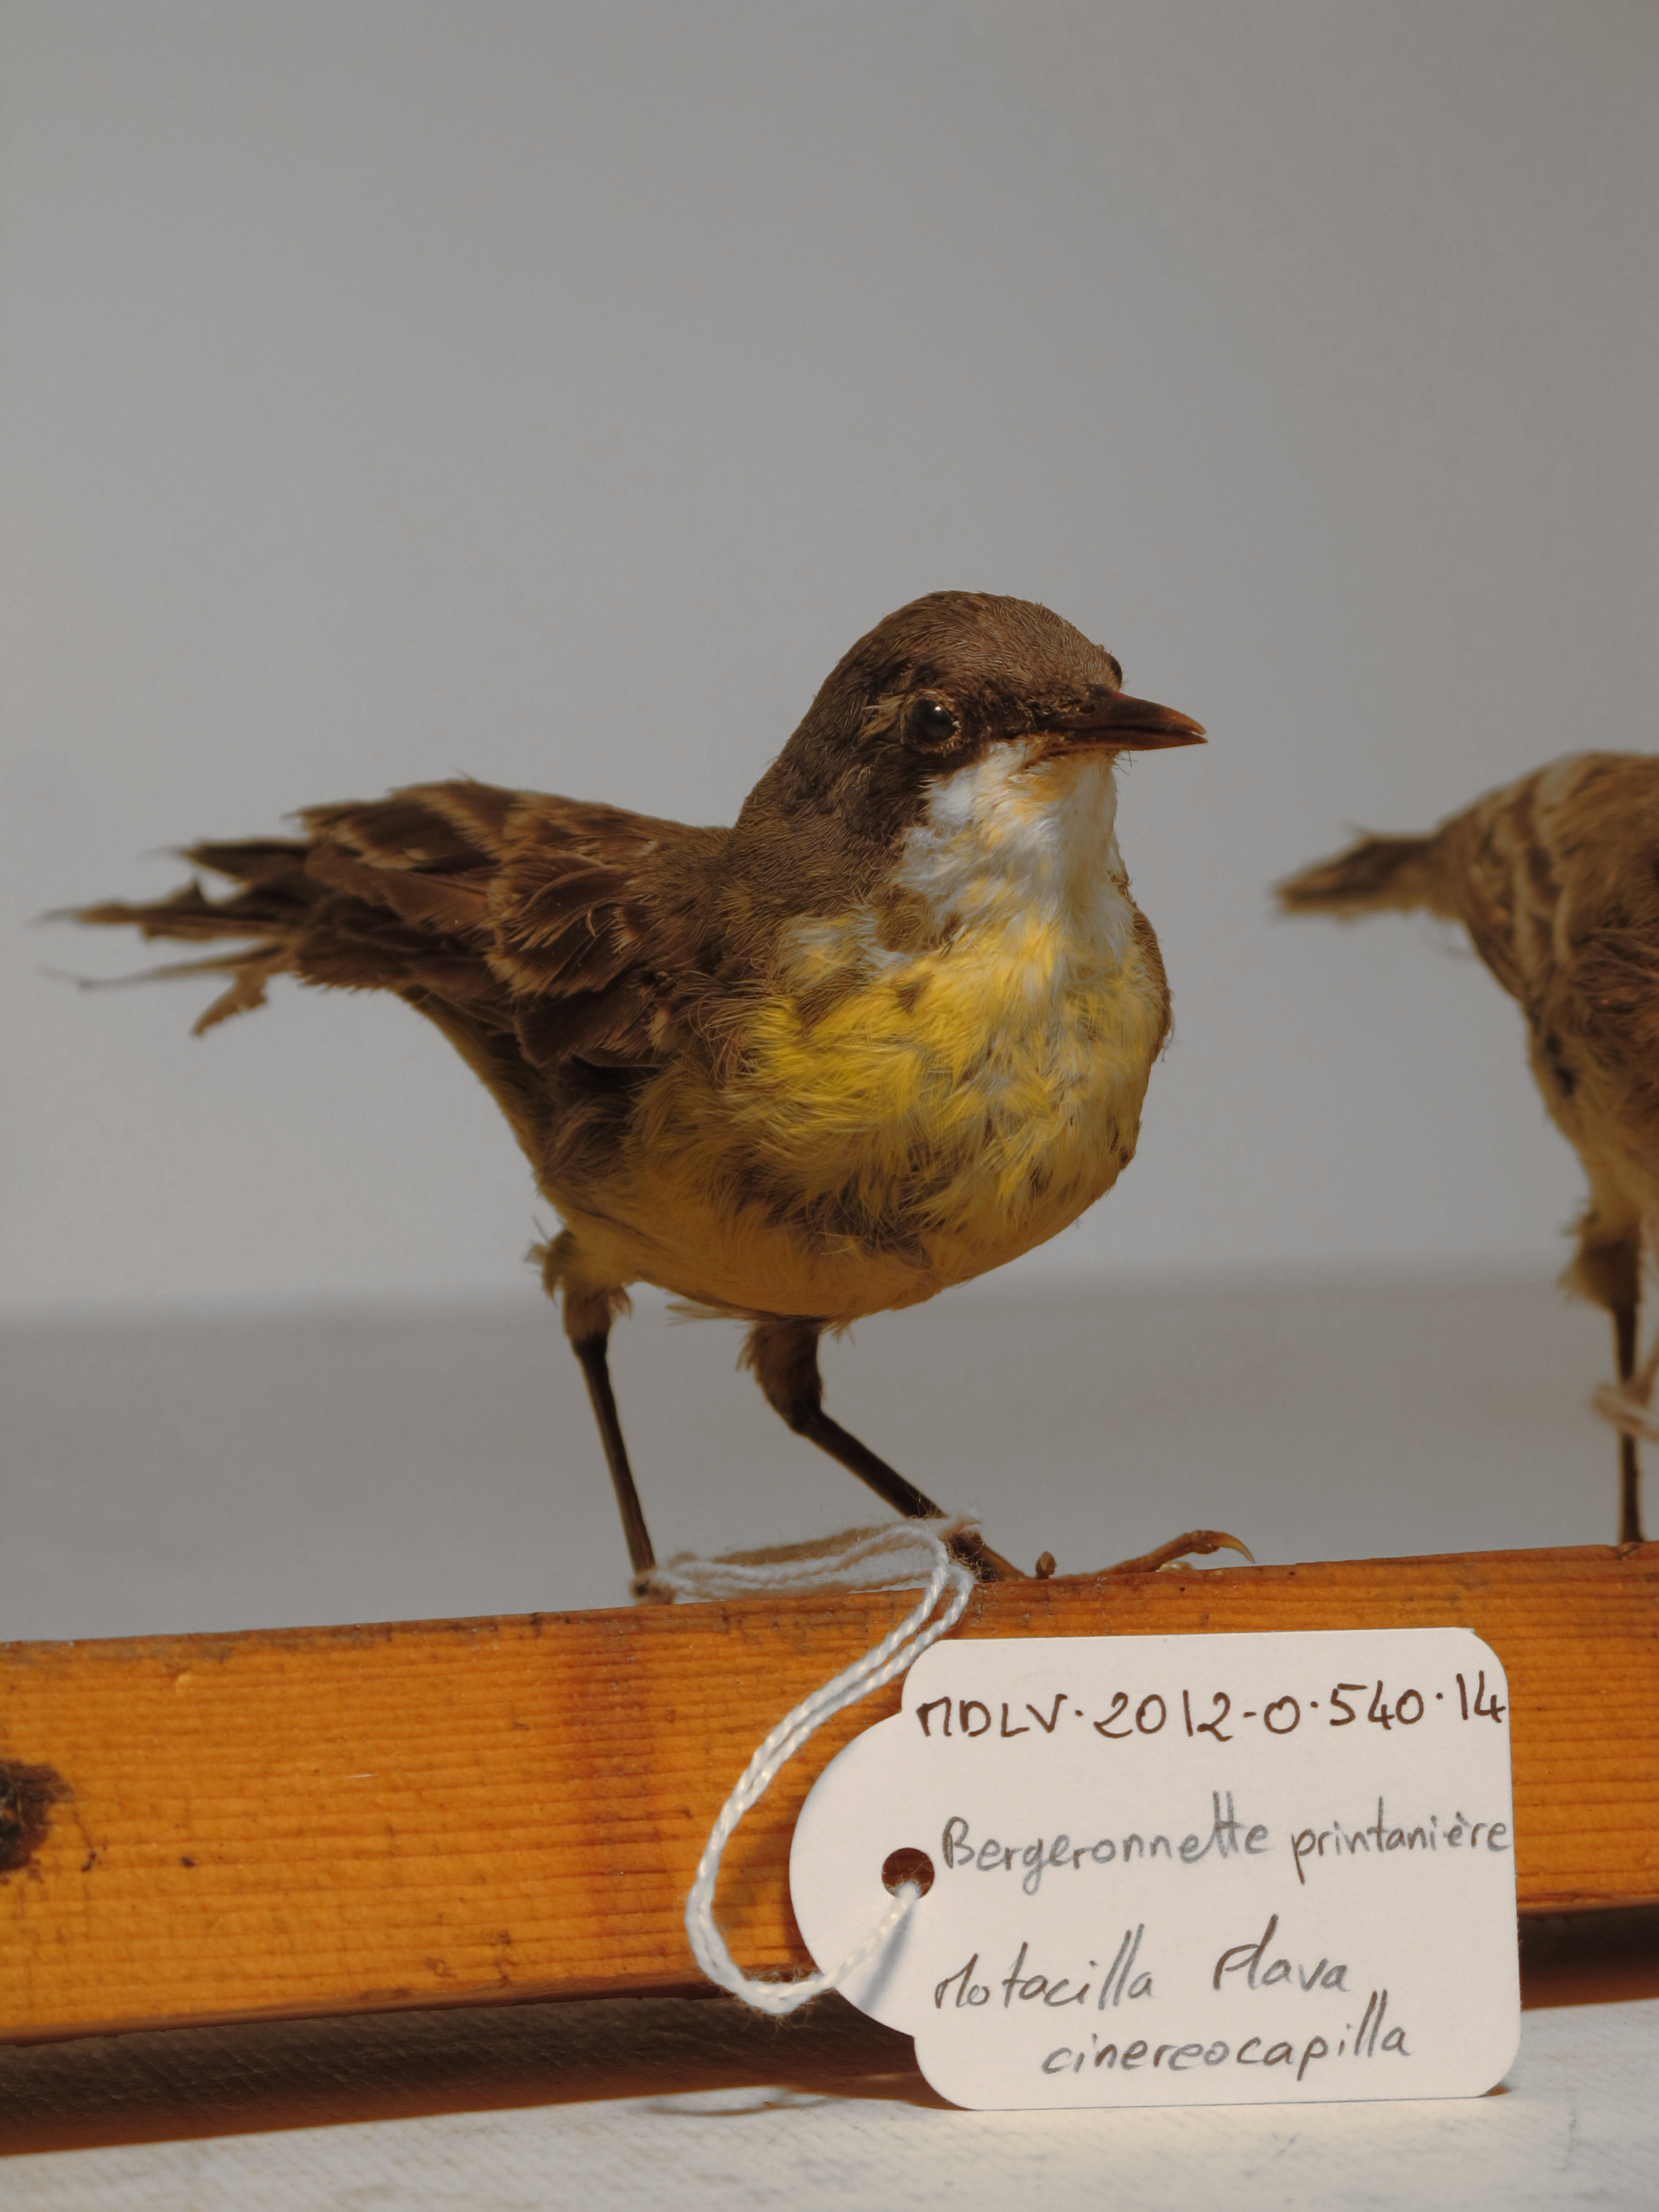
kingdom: Animalia
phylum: Chordata
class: Aves
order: Passeriformes
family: Motacillidae
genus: Motacilla
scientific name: Motacilla flava
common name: Ashy-headed Wagtail
